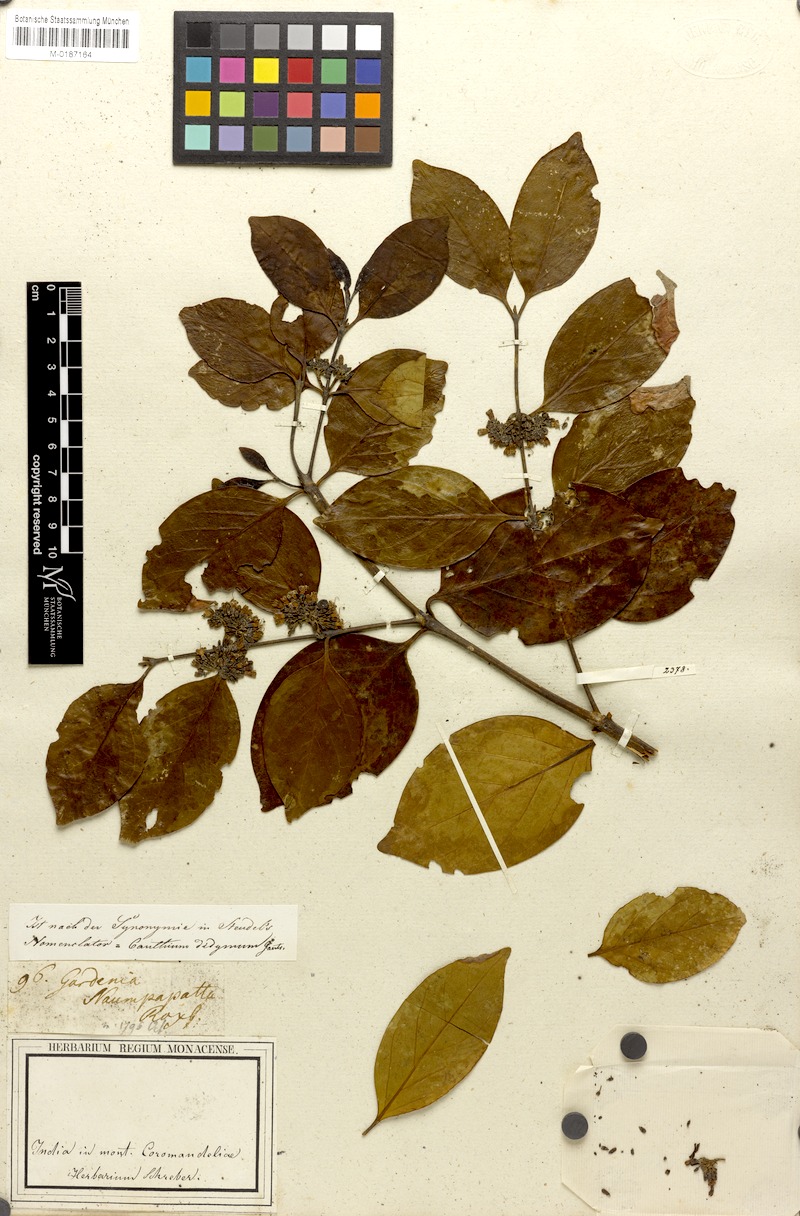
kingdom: Plantae
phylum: Tracheophyta
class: Magnoliopsida
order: Gentianales
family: Rubiaceae
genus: Psydrax
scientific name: Psydrax dicoccos
